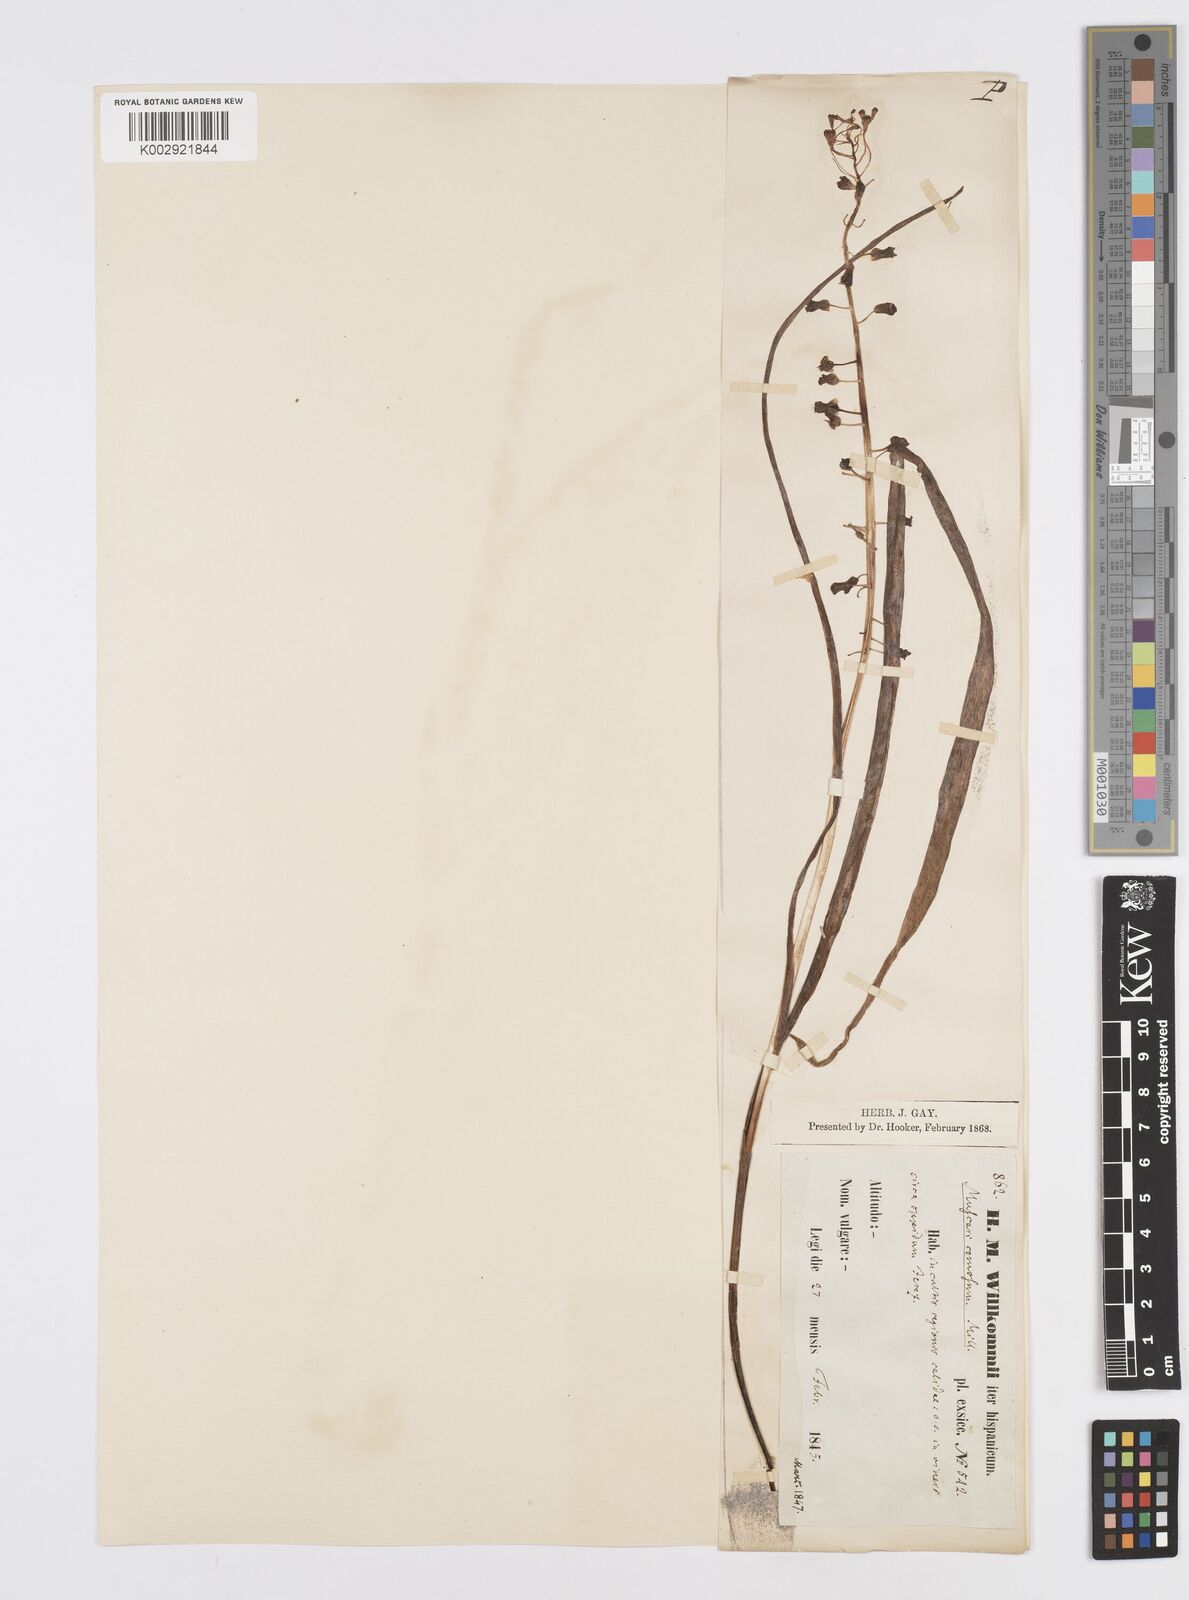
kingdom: Plantae
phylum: Tracheophyta
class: Liliopsida
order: Asparagales
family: Asparagaceae
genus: Muscari
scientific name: Muscari comosum
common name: Tassel hyacinth
